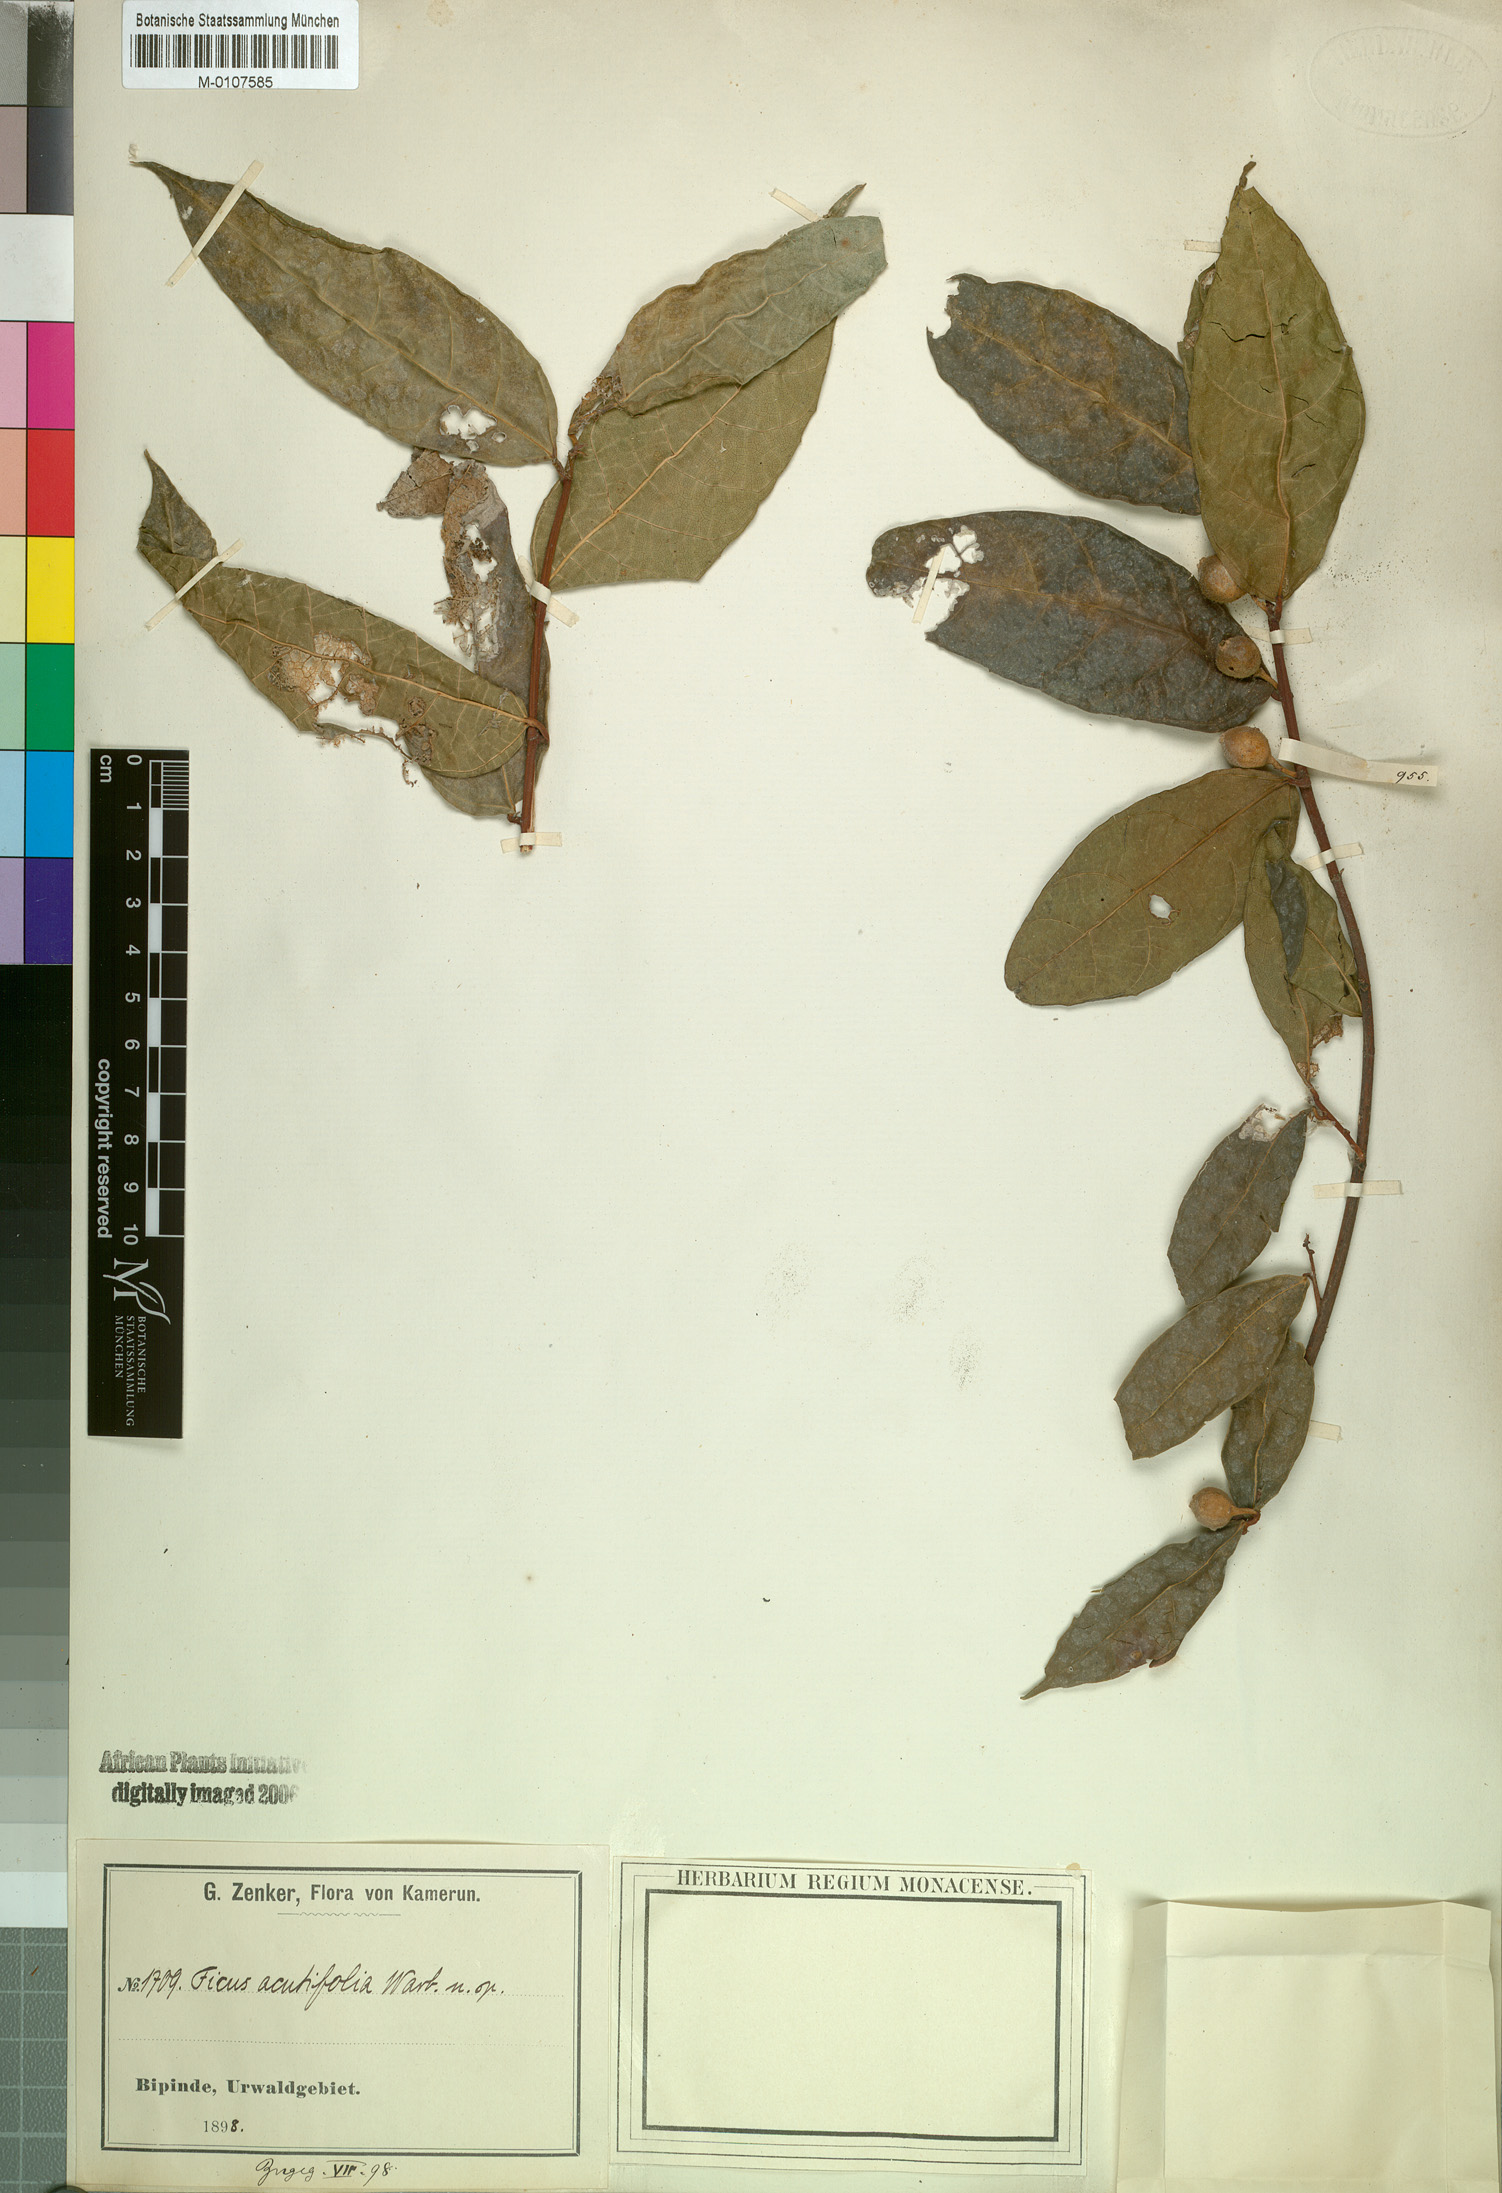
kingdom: Plantae
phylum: Tracheophyta
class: Magnoliopsida
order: Rosales
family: Moraceae
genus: Ficus
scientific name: Ficus asperifolia
